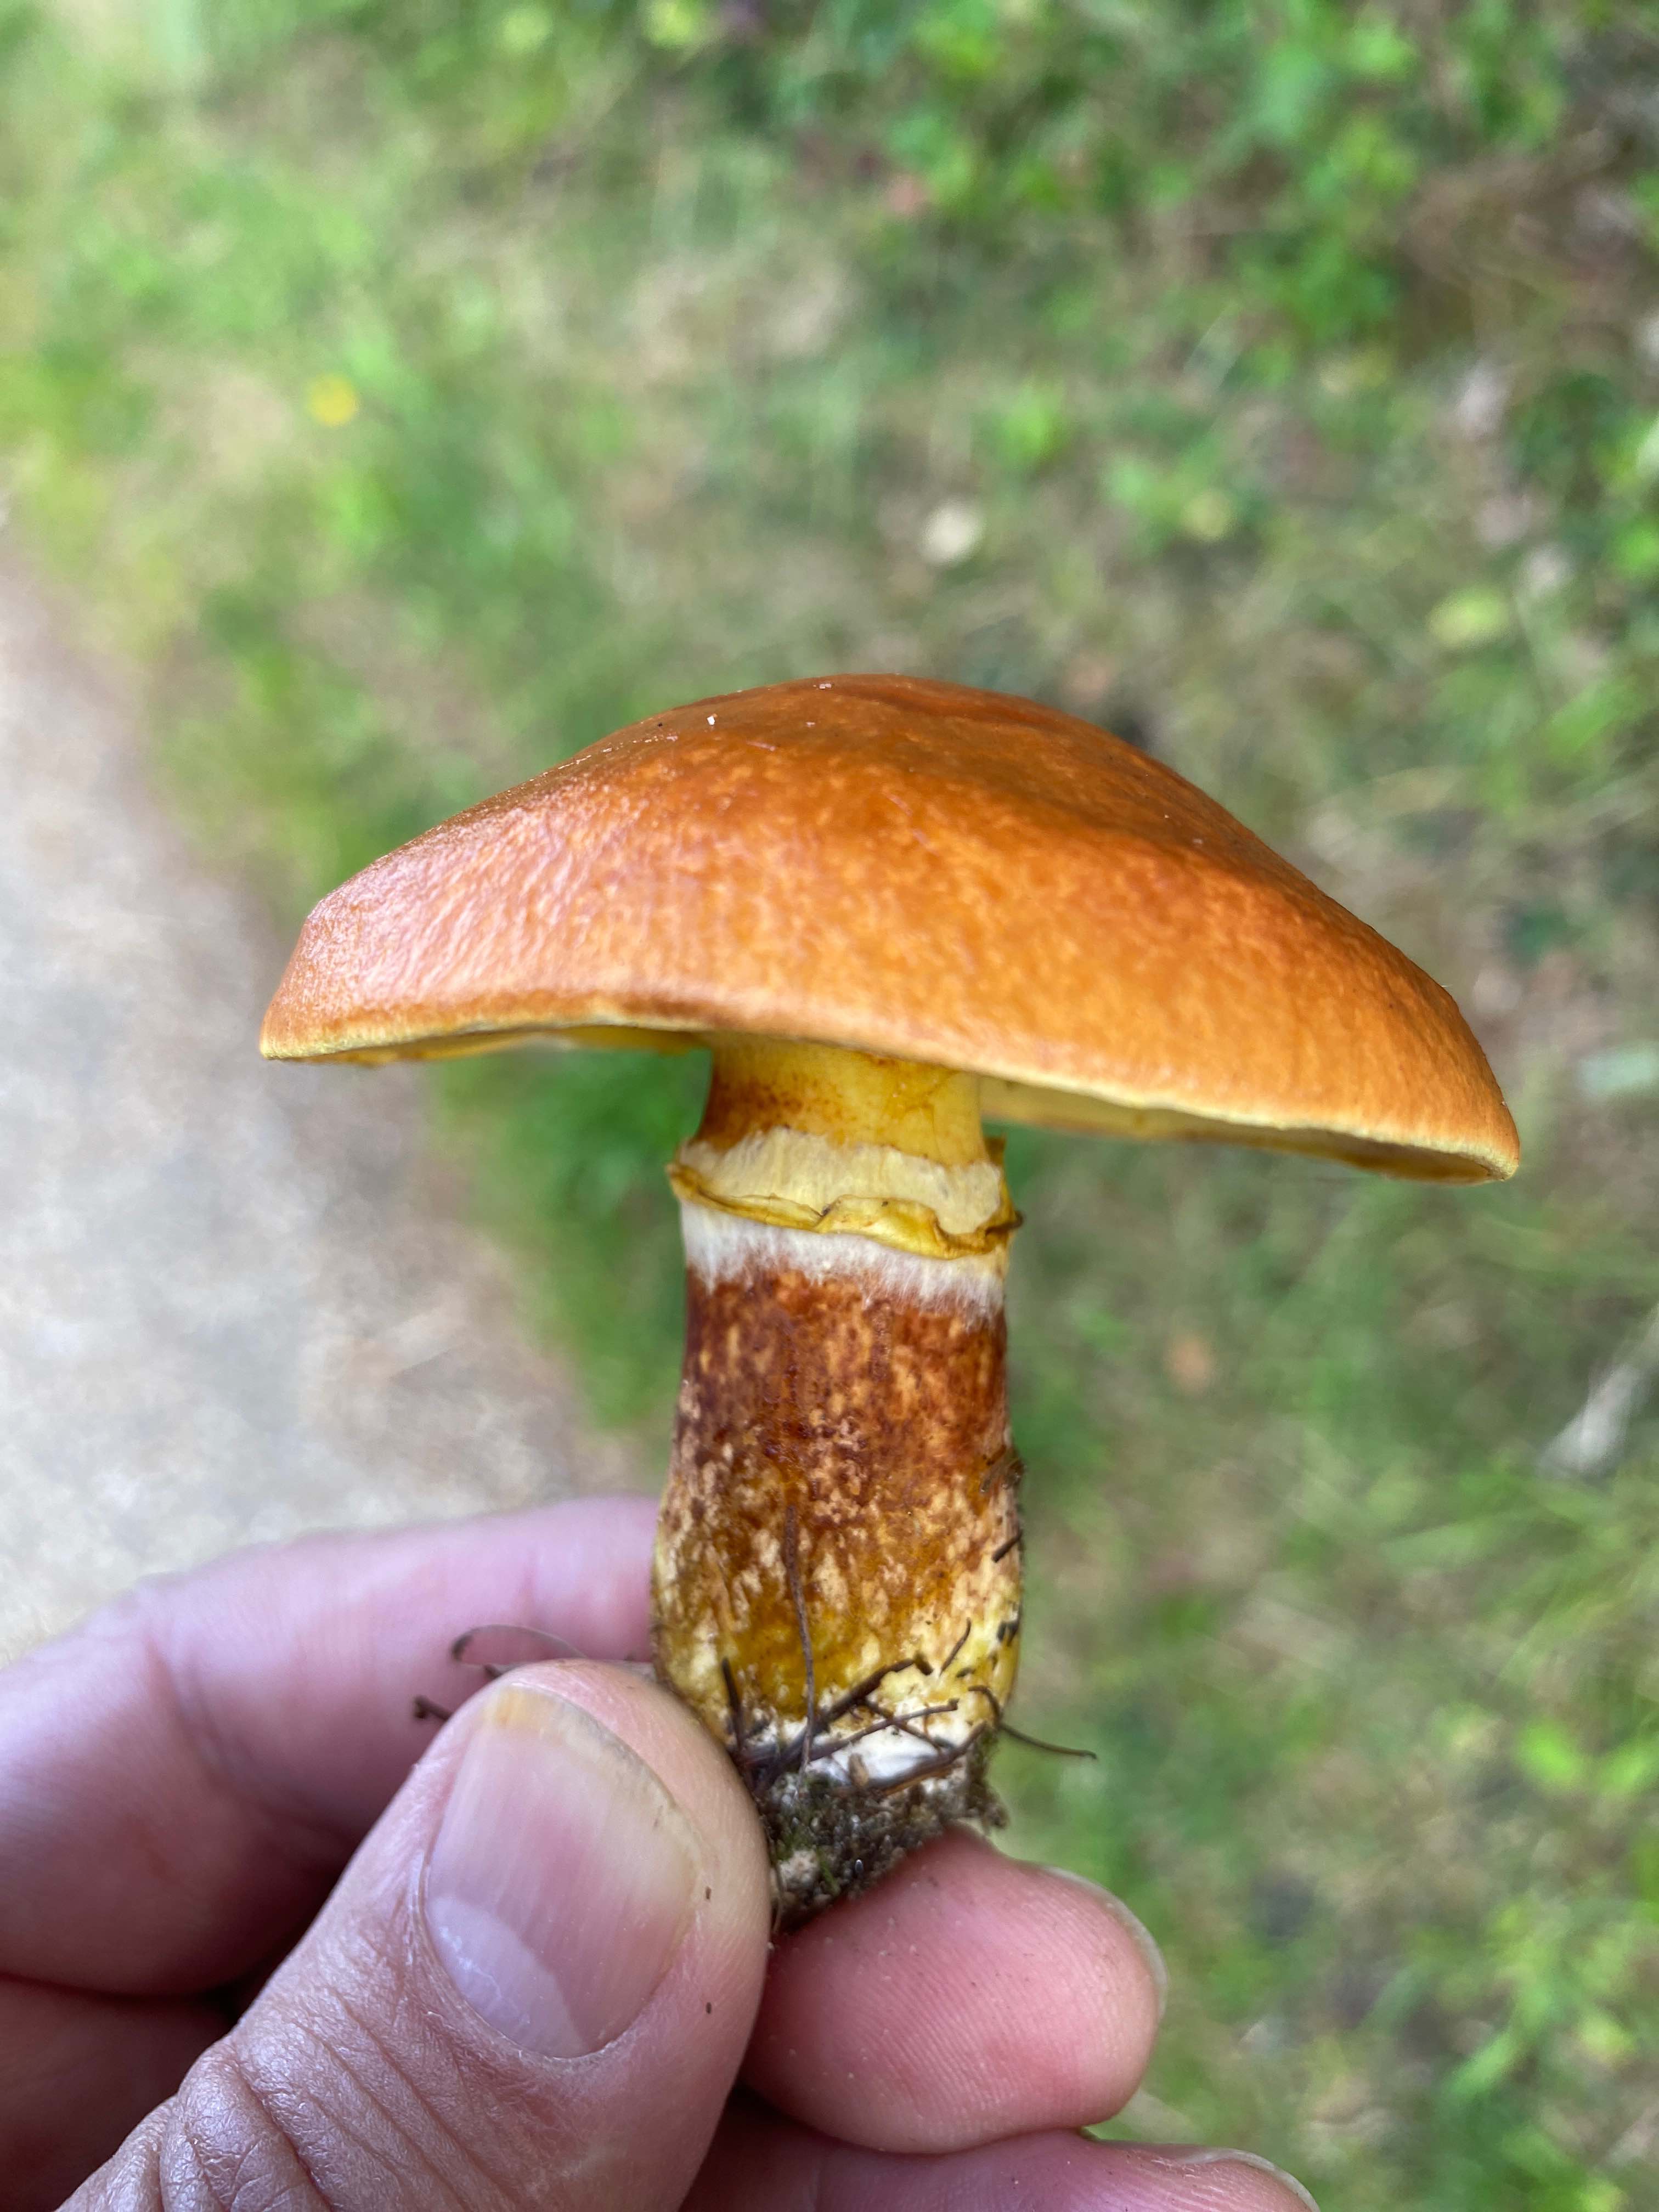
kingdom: Fungi
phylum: Basidiomycota
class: Agaricomycetes
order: Boletales
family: Suillaceae
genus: Suillus
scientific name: Suillus grevillei
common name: lærke-slimrørhat
